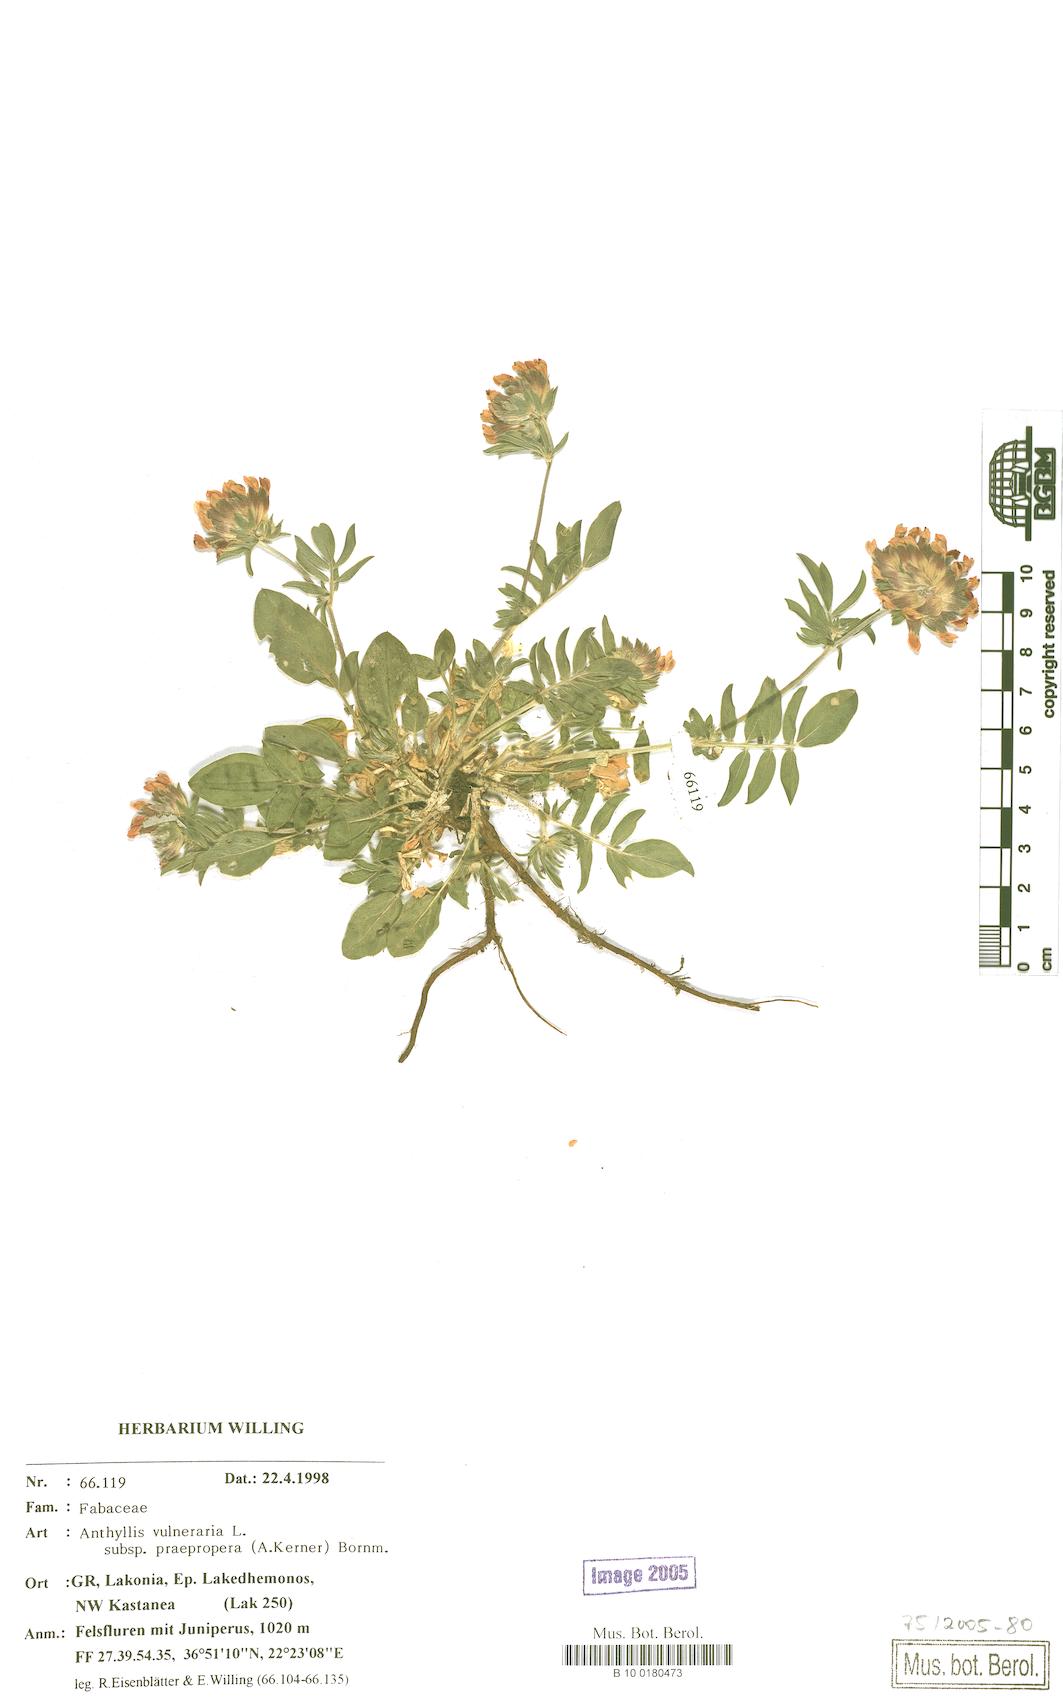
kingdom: Plantae
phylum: Tracheophyta
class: Magnoliopsida
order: Fabales
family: Fabaceae
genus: Anthyllis
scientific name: Anthyllis vulneraria
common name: Kidney vetch
